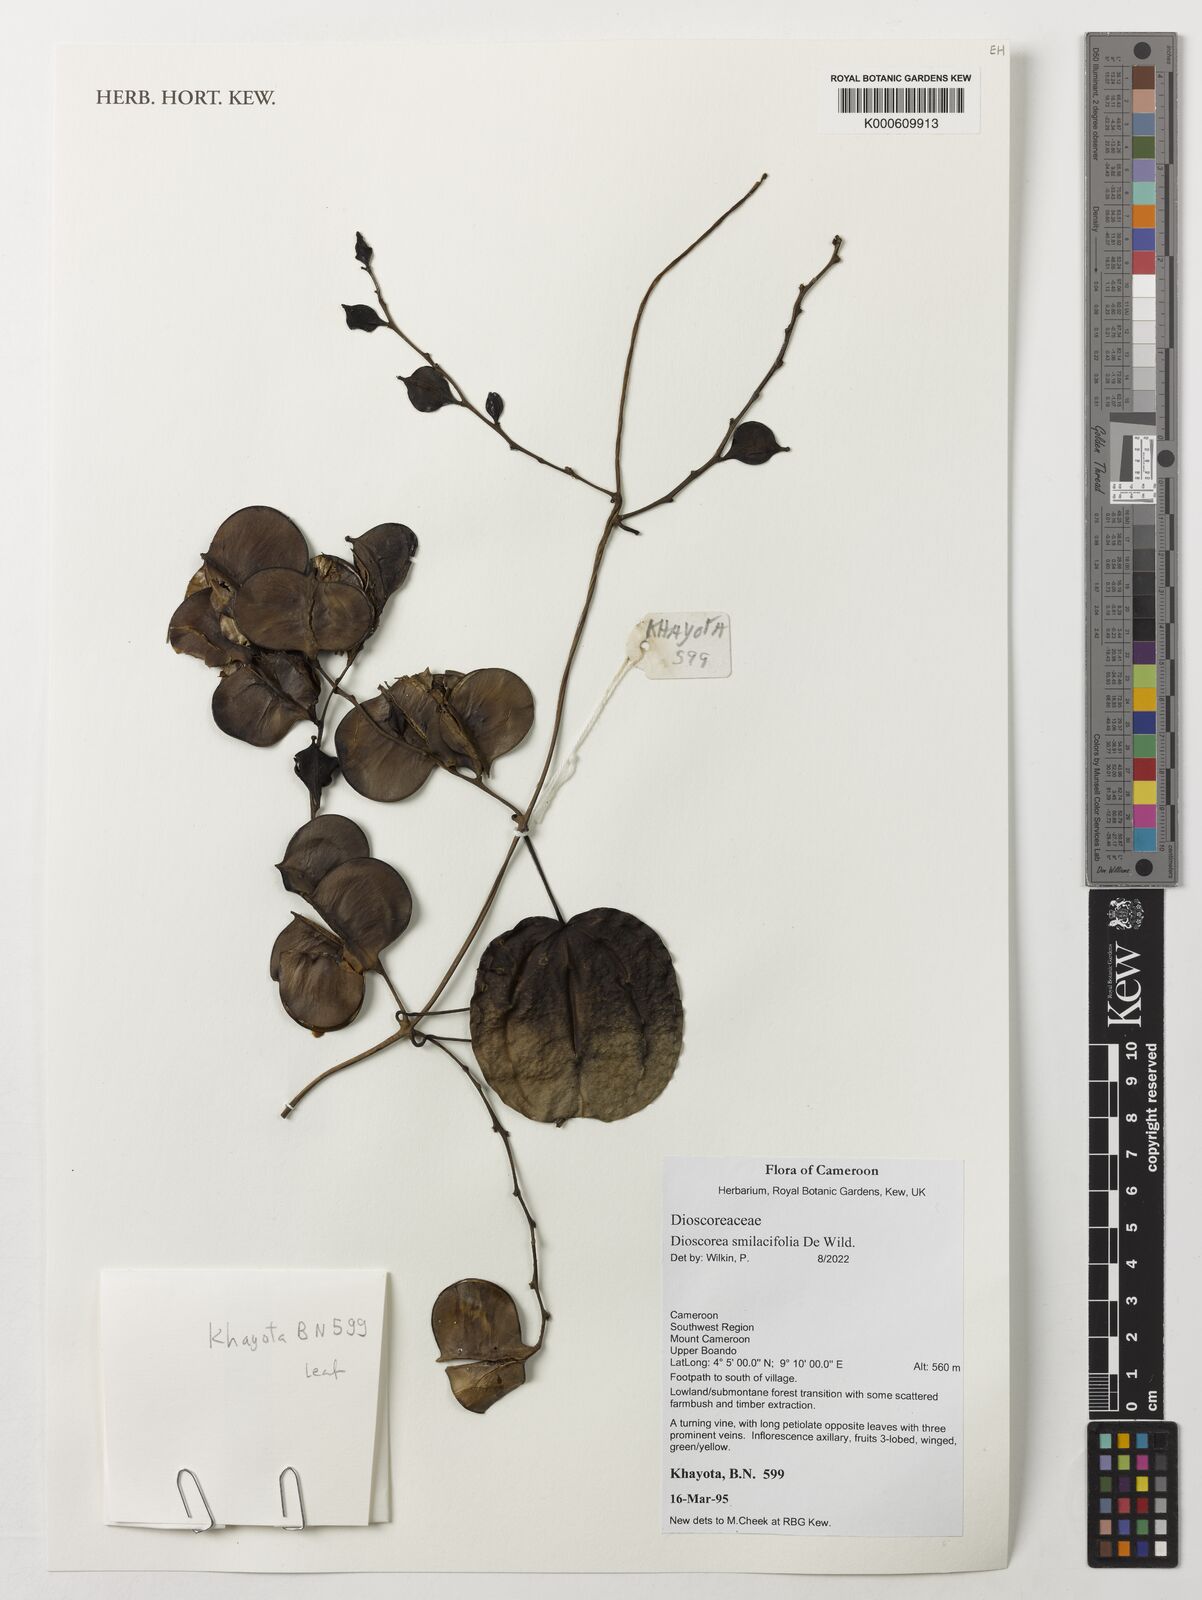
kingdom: Plantae
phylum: Tracheophyta
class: Liliopsida
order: Dioscoreales
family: Dioscoreaceae
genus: Dioscorea
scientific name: Dioscorea smilacifolia
